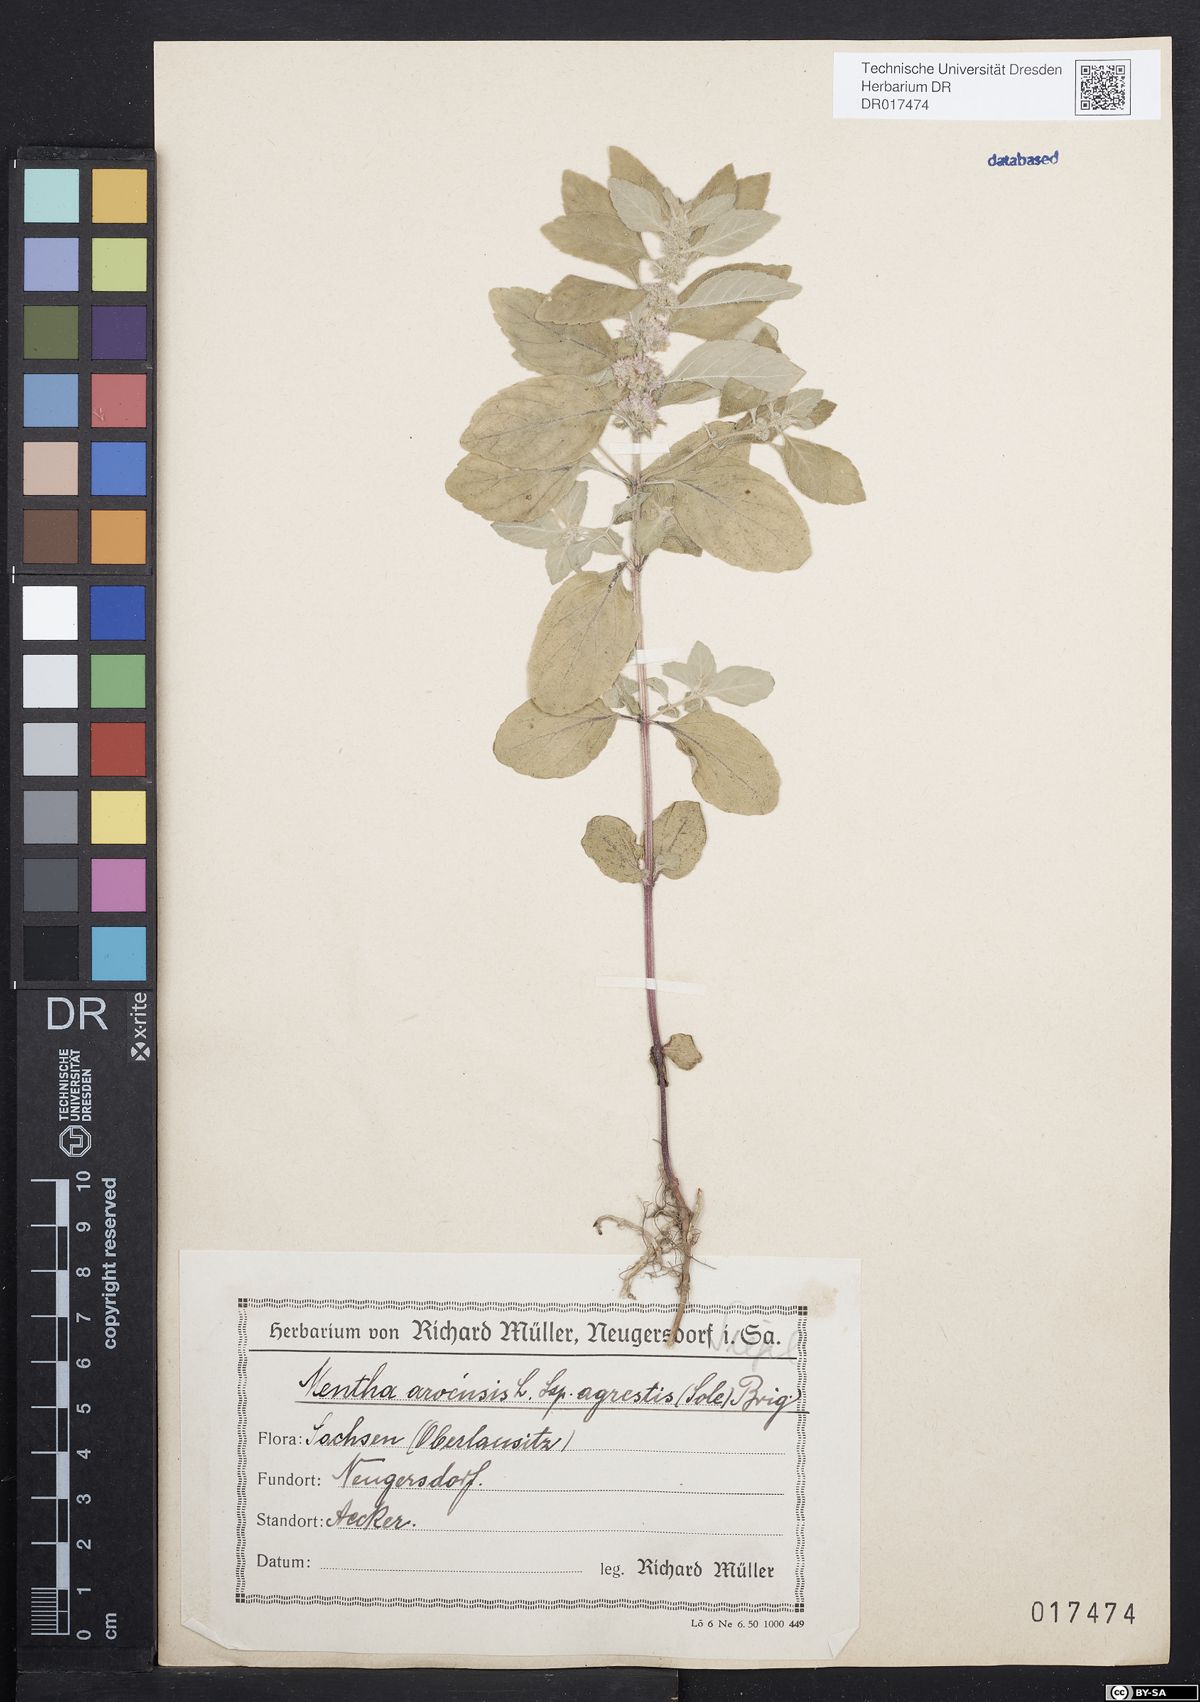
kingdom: Plantae
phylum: Tracheophyta
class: Magnoliopsida
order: Lamiales
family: Lamiaceae
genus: Mentha
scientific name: Mentha arvensis
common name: Corn mint
